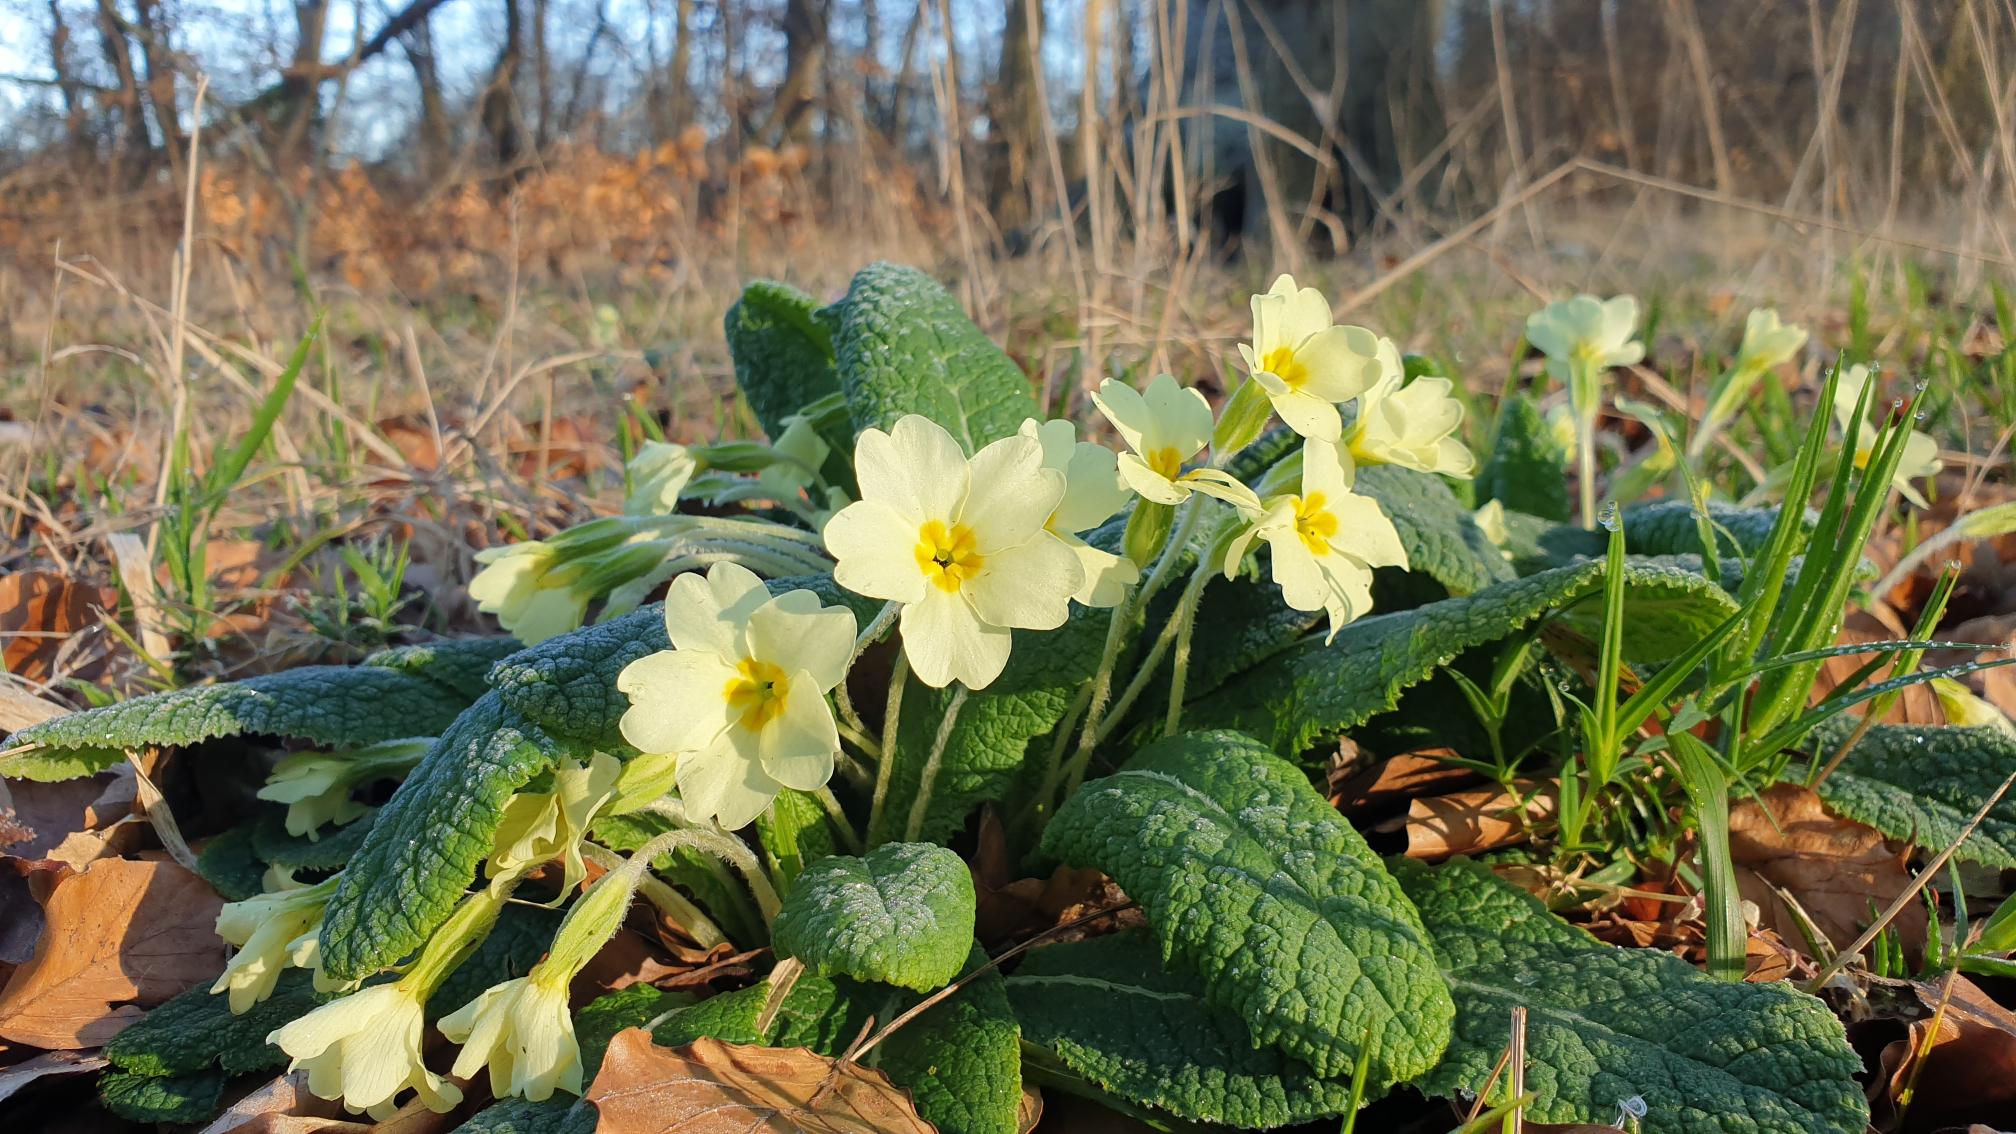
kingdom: Plantae
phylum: Tracheophyta
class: Magnoliopsida
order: Ericales
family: Primulaceae
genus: Primula
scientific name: Primula vulgaris
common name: Storblomstret kodriver
